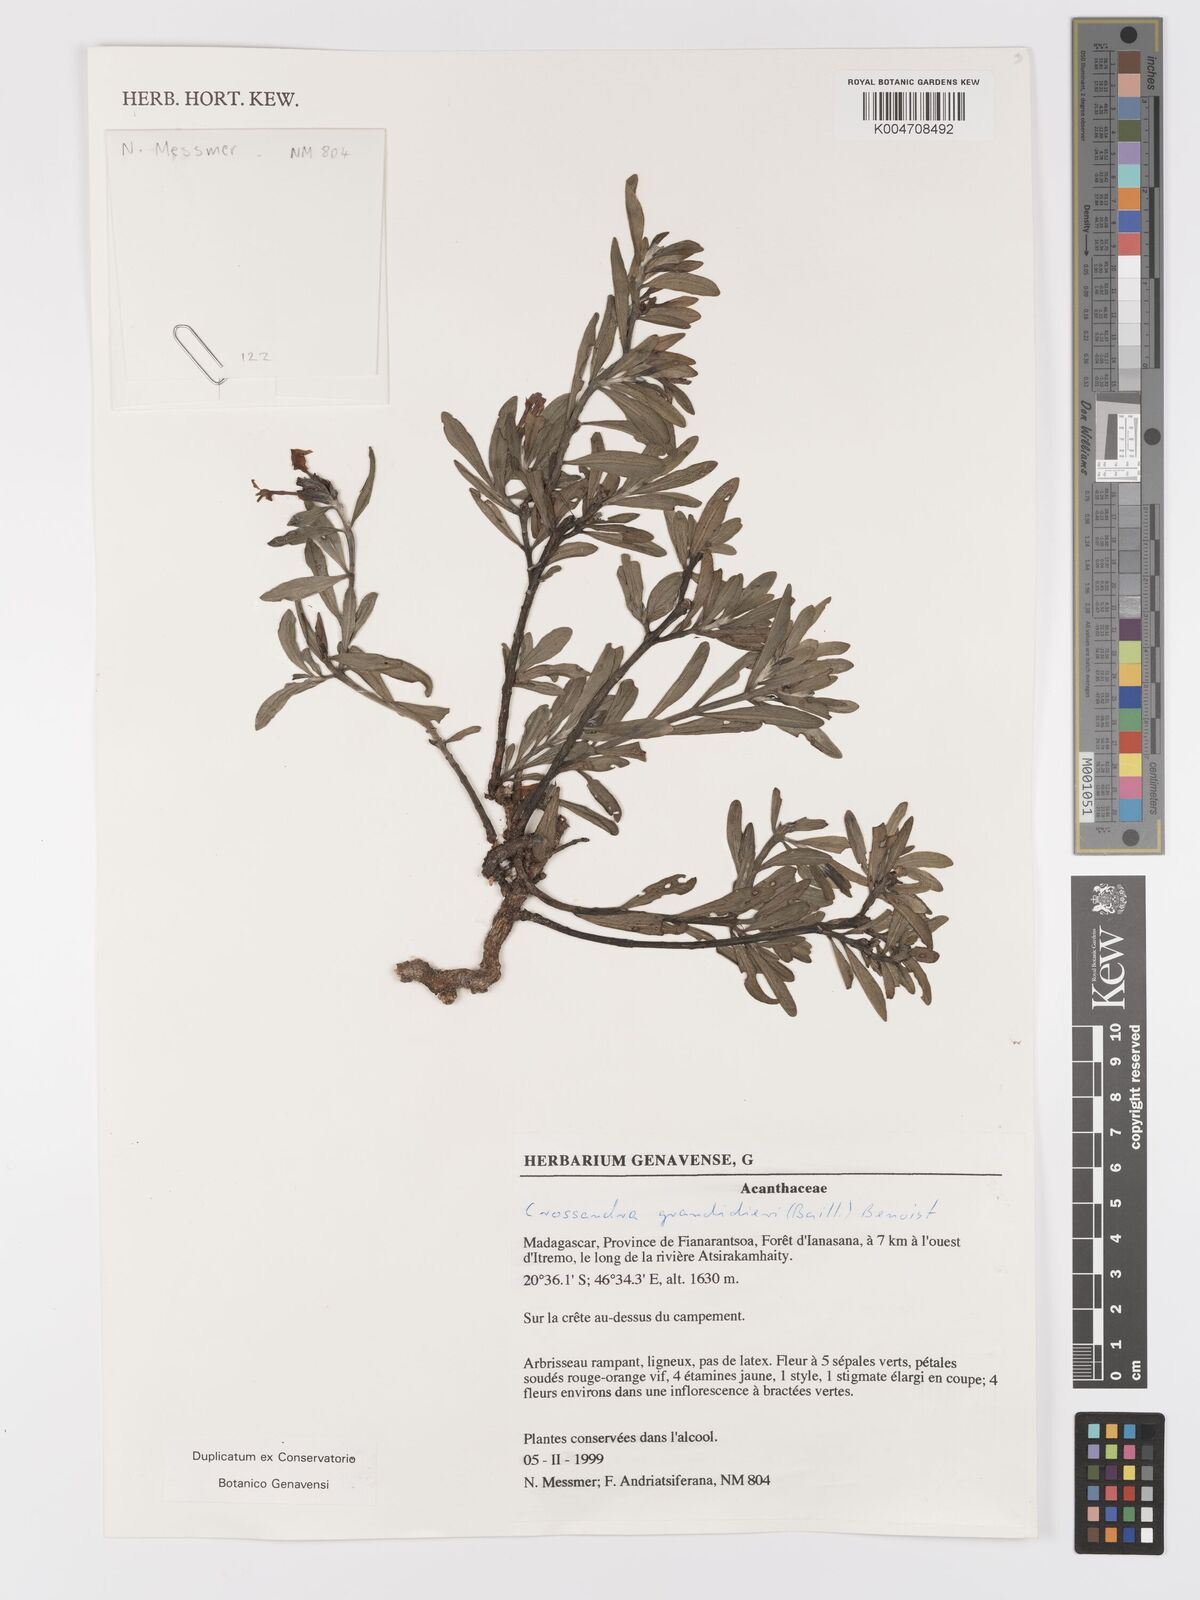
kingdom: Plantae
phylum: Tracheophyta
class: Magnoliopsida
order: Lamiales
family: Acanthaceae
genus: Crossandra
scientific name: Crossandra grandidieri
